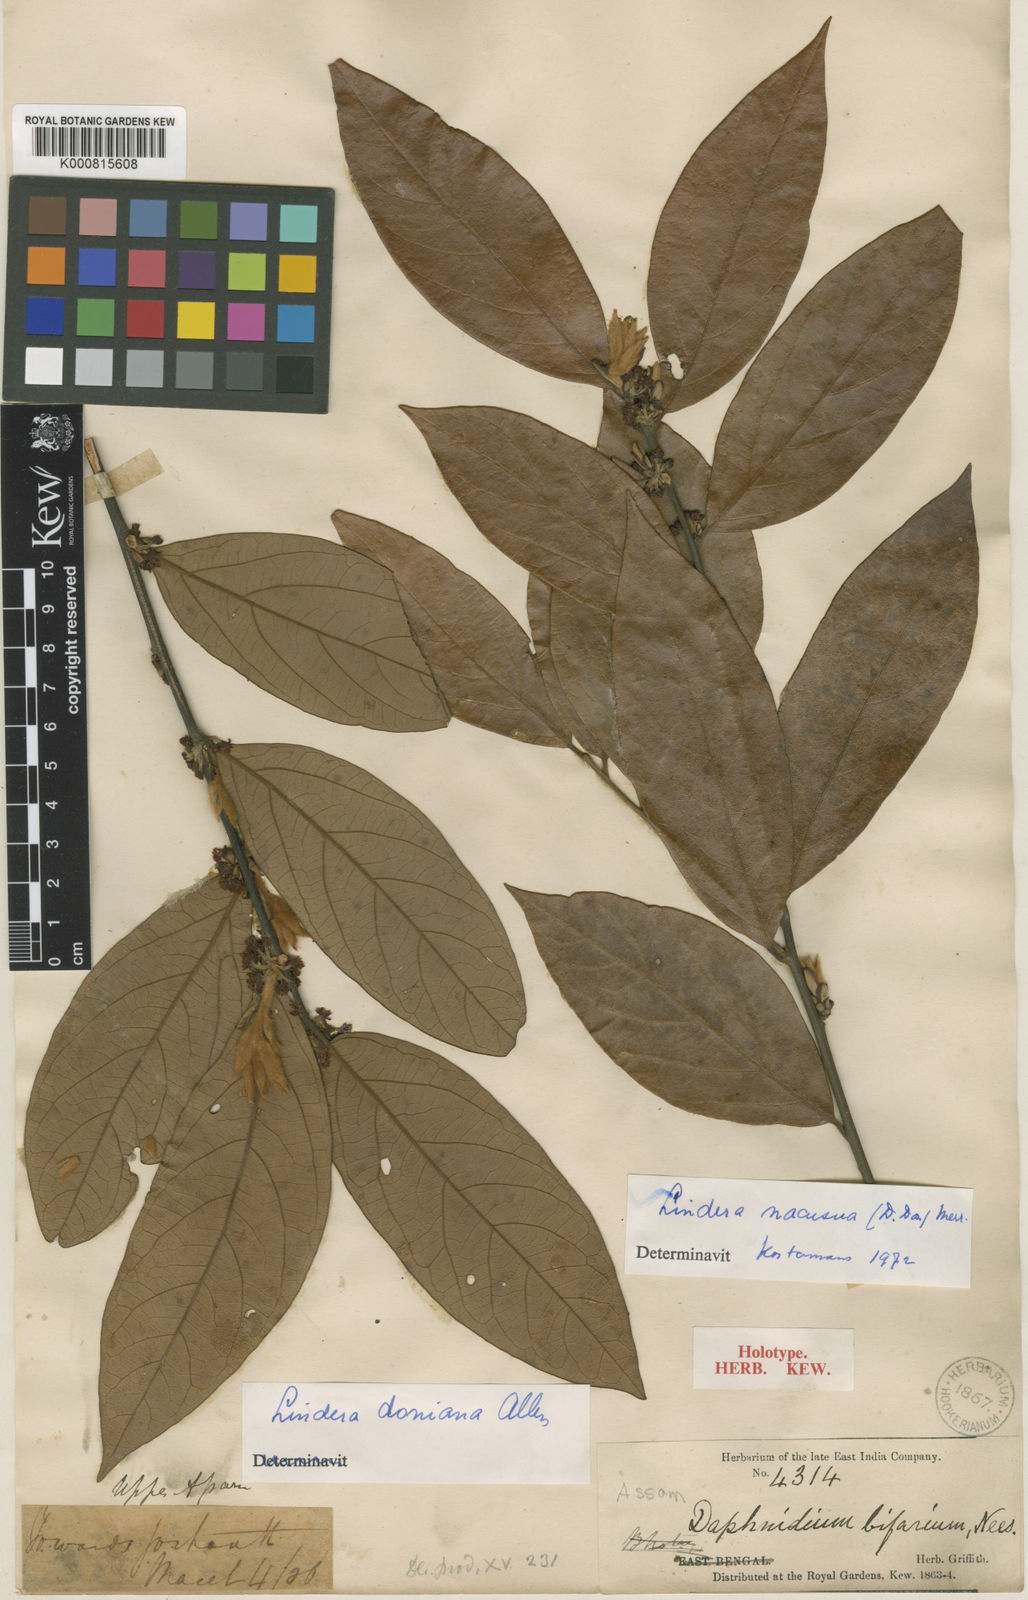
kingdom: Plantae
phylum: Tracheophyta
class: Magnoliopsida
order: Laurales
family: Lauraceae
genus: Lindera
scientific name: Lindera nacusua
